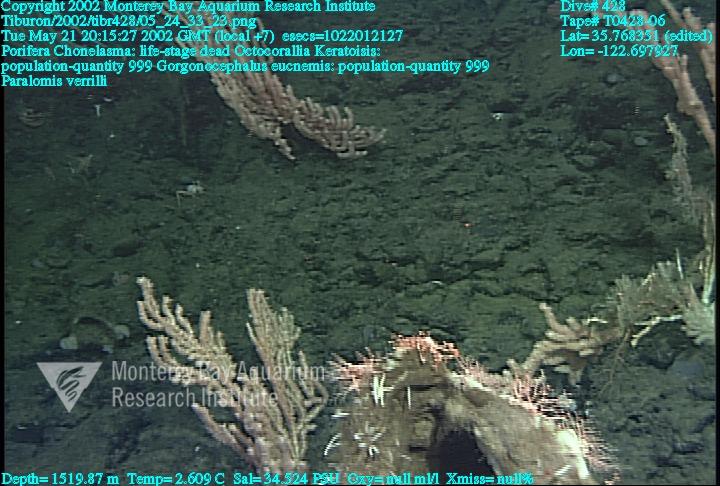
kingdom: Animalia
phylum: Porifera
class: Hexactinellida
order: Sceptrulophora
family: Euretidae
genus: Chonelasma
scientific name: Chonelasma
